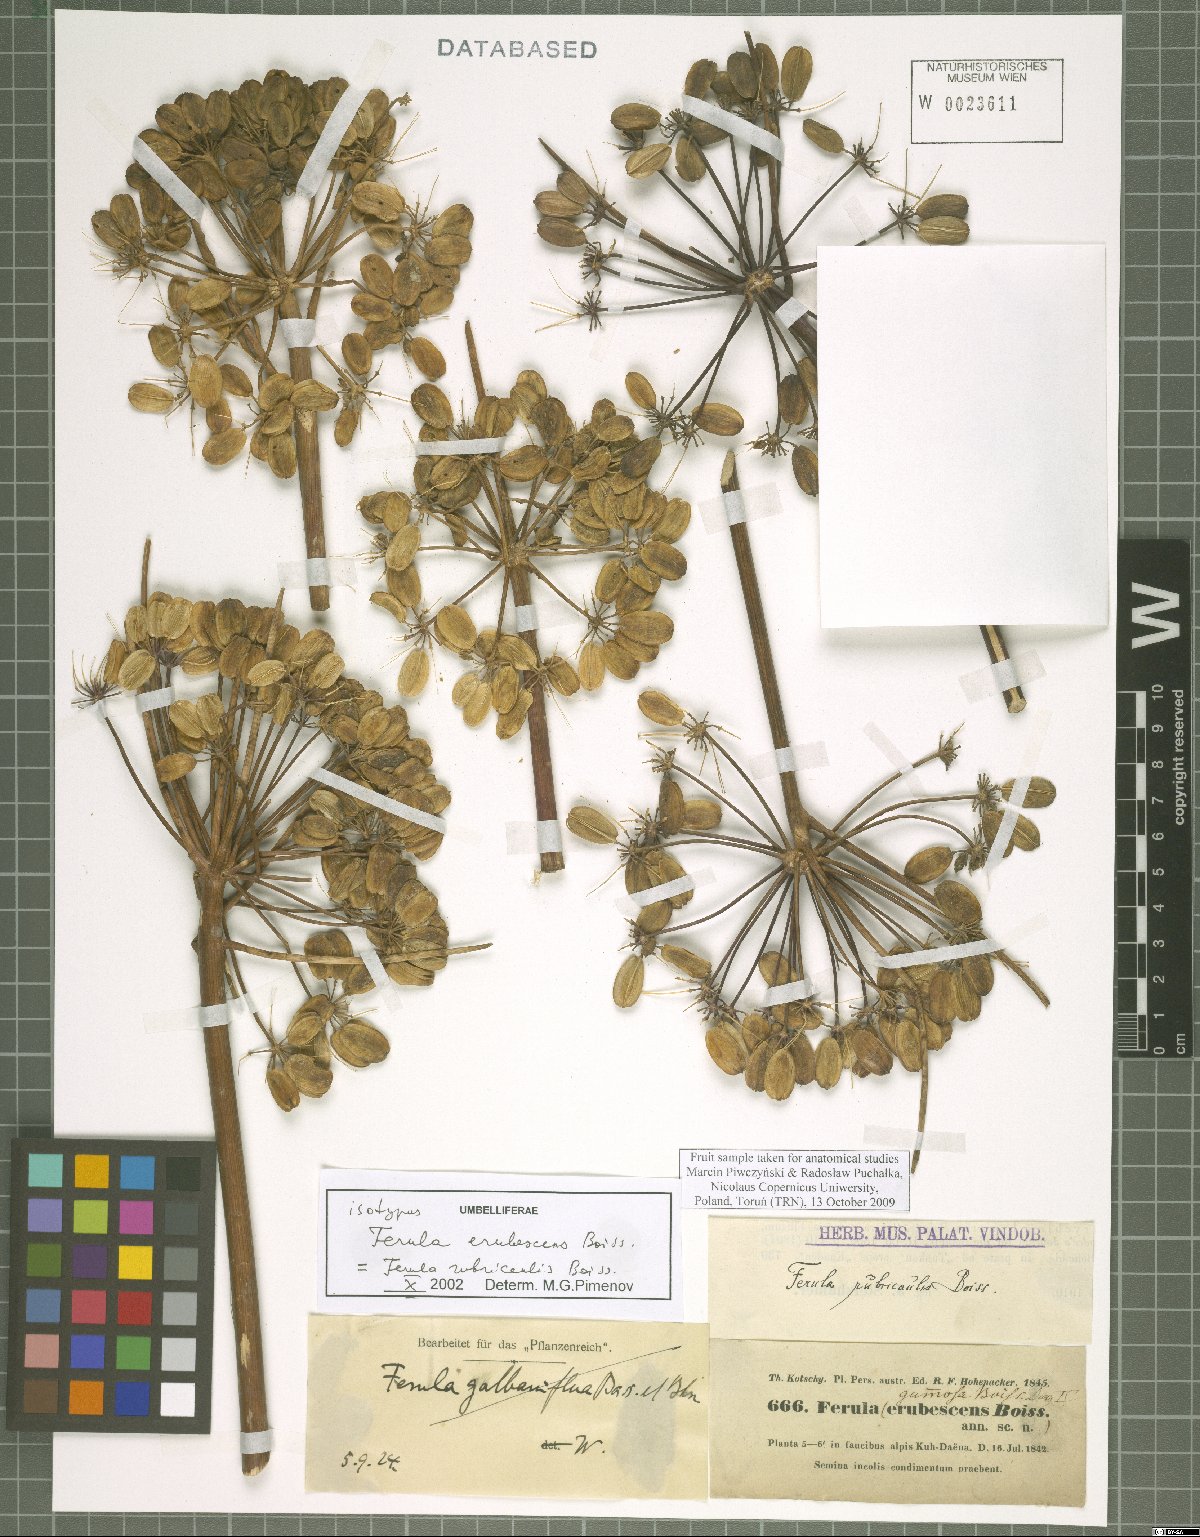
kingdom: Plantae
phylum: Tracheophyta
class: Magnoliopsida
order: Apiales
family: Apiaceae
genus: Ferula
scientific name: Ferula rubricaulis
